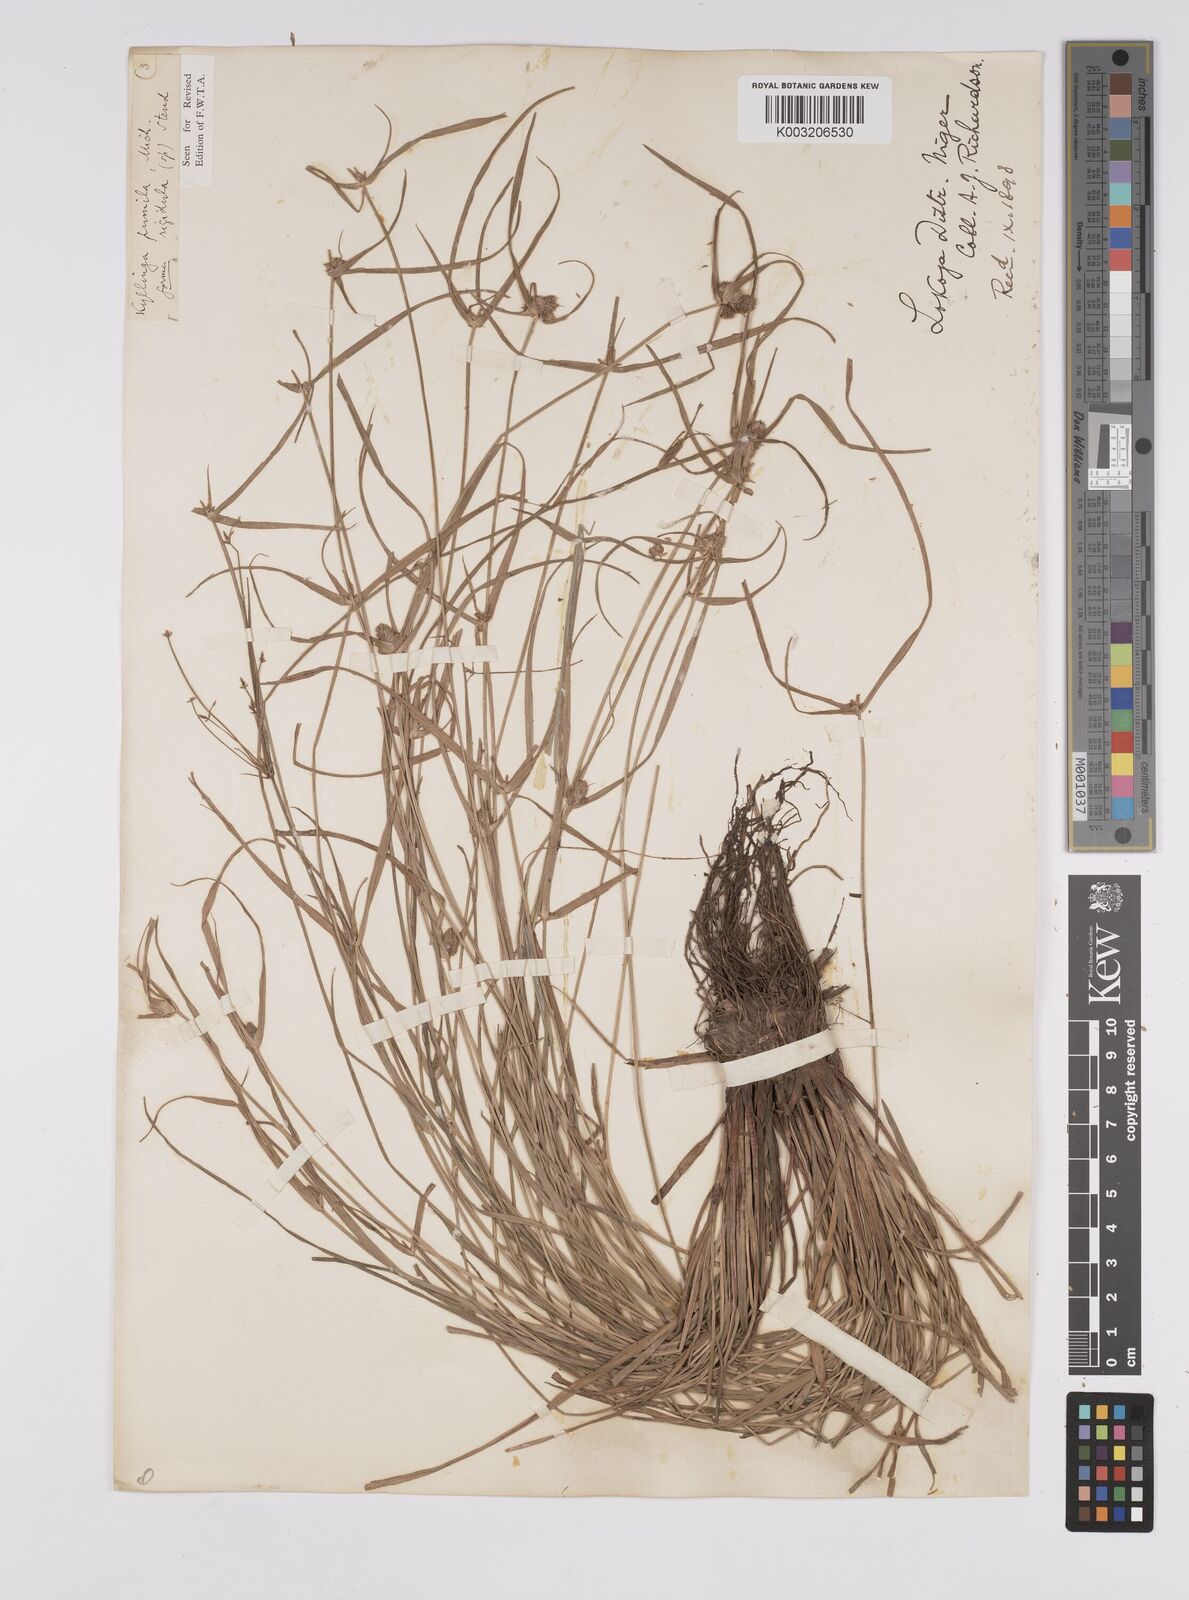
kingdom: Plantae
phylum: Tracheophyta
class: Liliopsida
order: Poales
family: Cyperaceae
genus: Cyperus
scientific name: Cyperus
